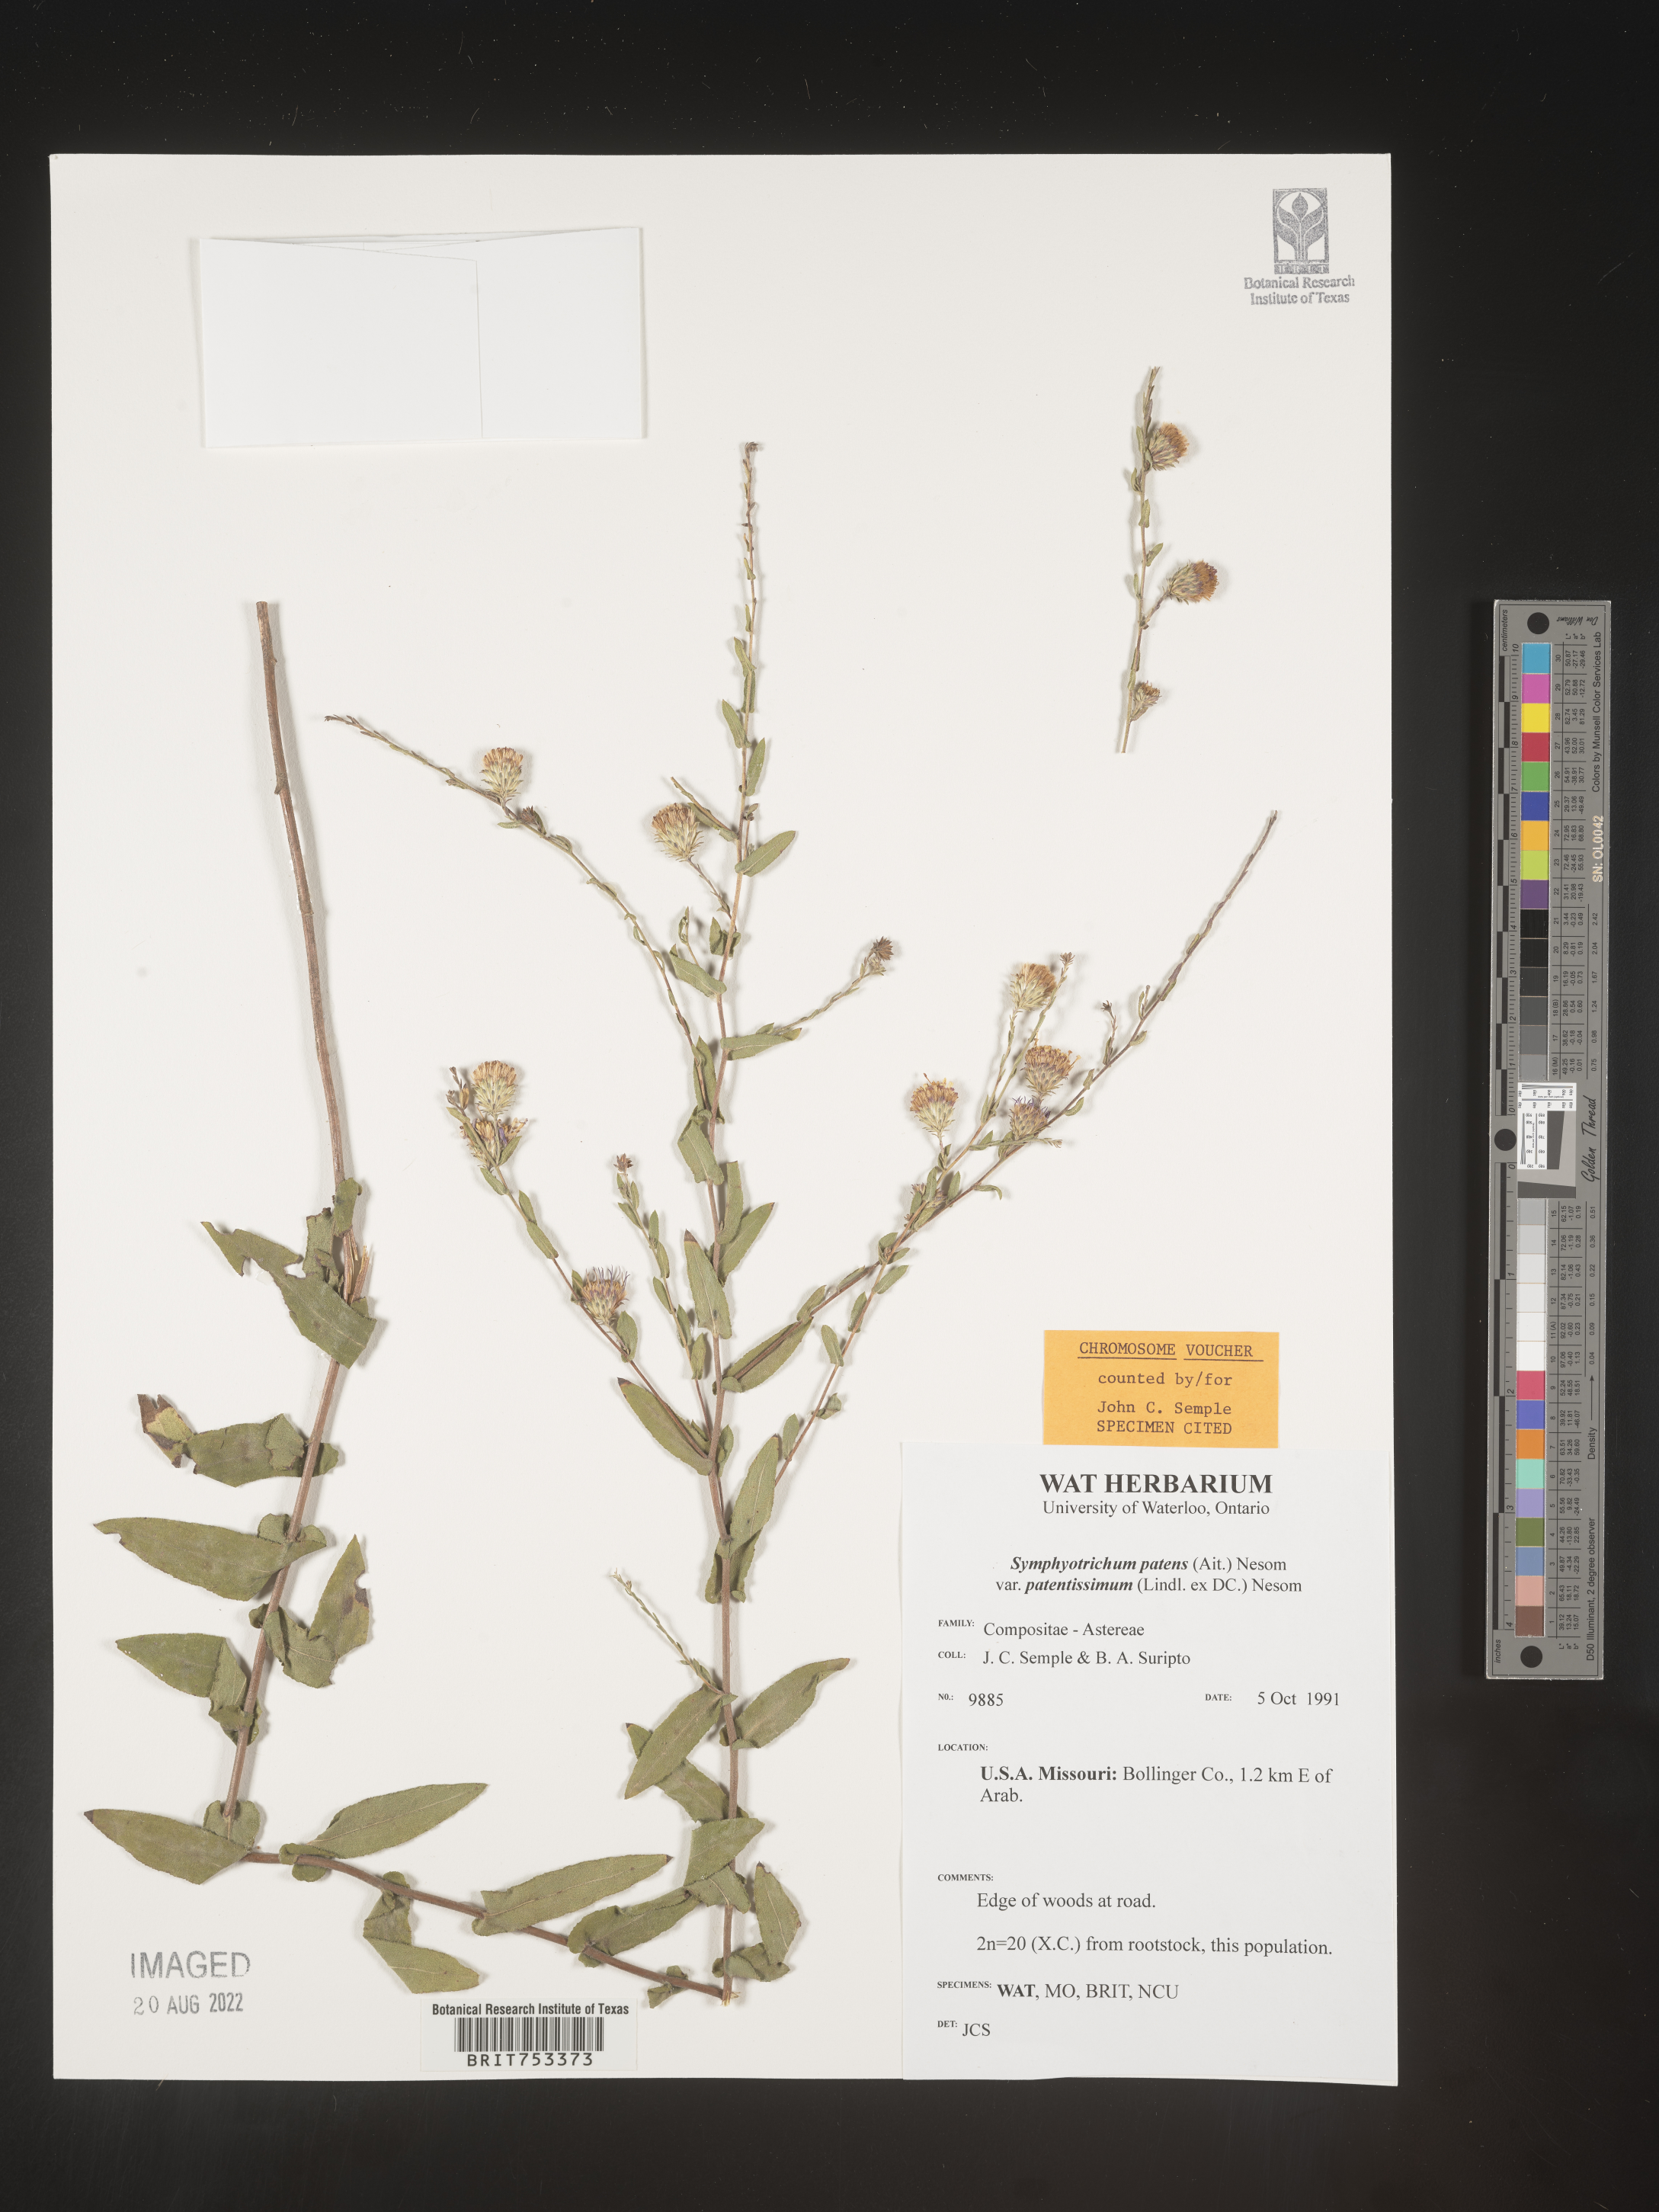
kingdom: Plantae
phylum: Tracheophyta
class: Magnoliopsida
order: Asterales
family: Asteraceae
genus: Symphyotrichum
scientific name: Symphyotrichum patens
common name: Late purple aster
